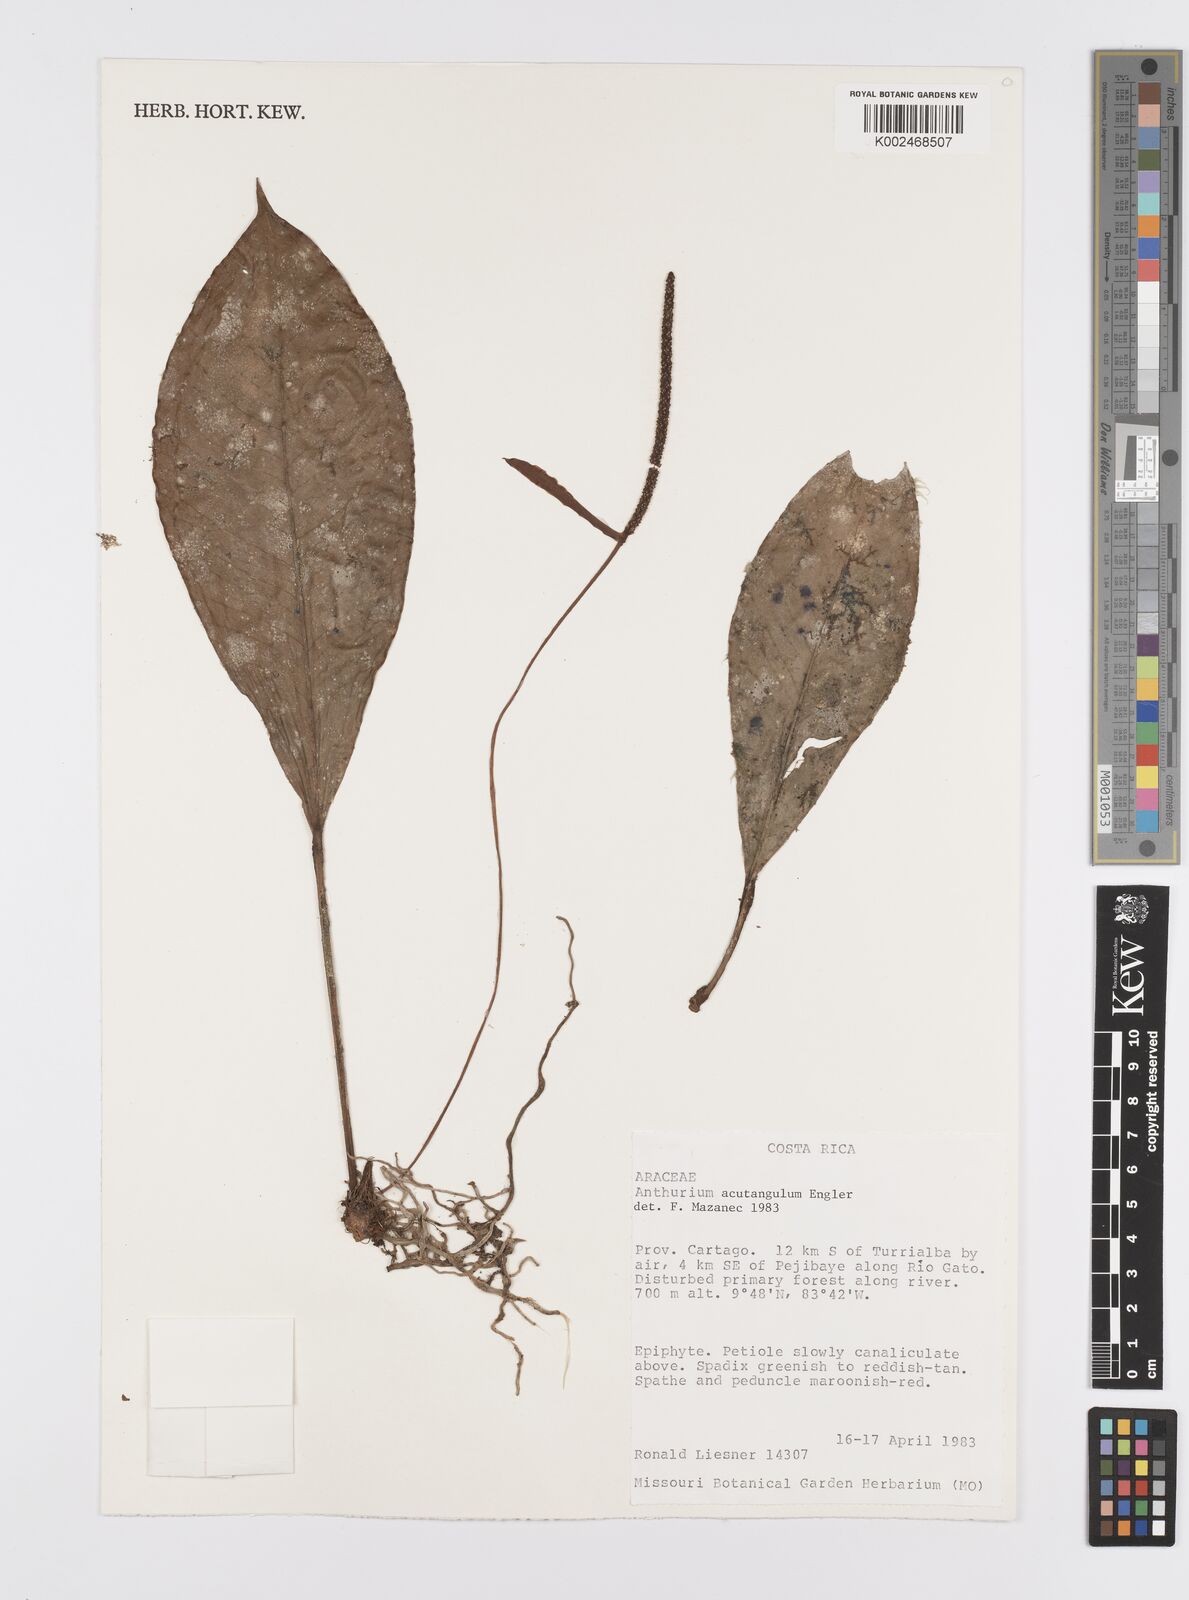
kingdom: Plantae
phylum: Tracheophyta
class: Liliopsida
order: Alismatales
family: Araceae
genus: Anthurium
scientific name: Anthurium acutangulum
